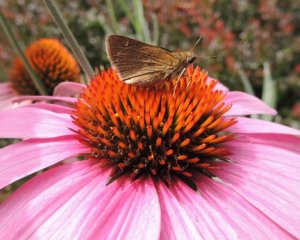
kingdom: Animalia
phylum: Arthropoda
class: Insecta
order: Lepidoptera
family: Hesperiidae
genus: Polites
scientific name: Polites themistocles
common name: Tawny-edged Skipper
